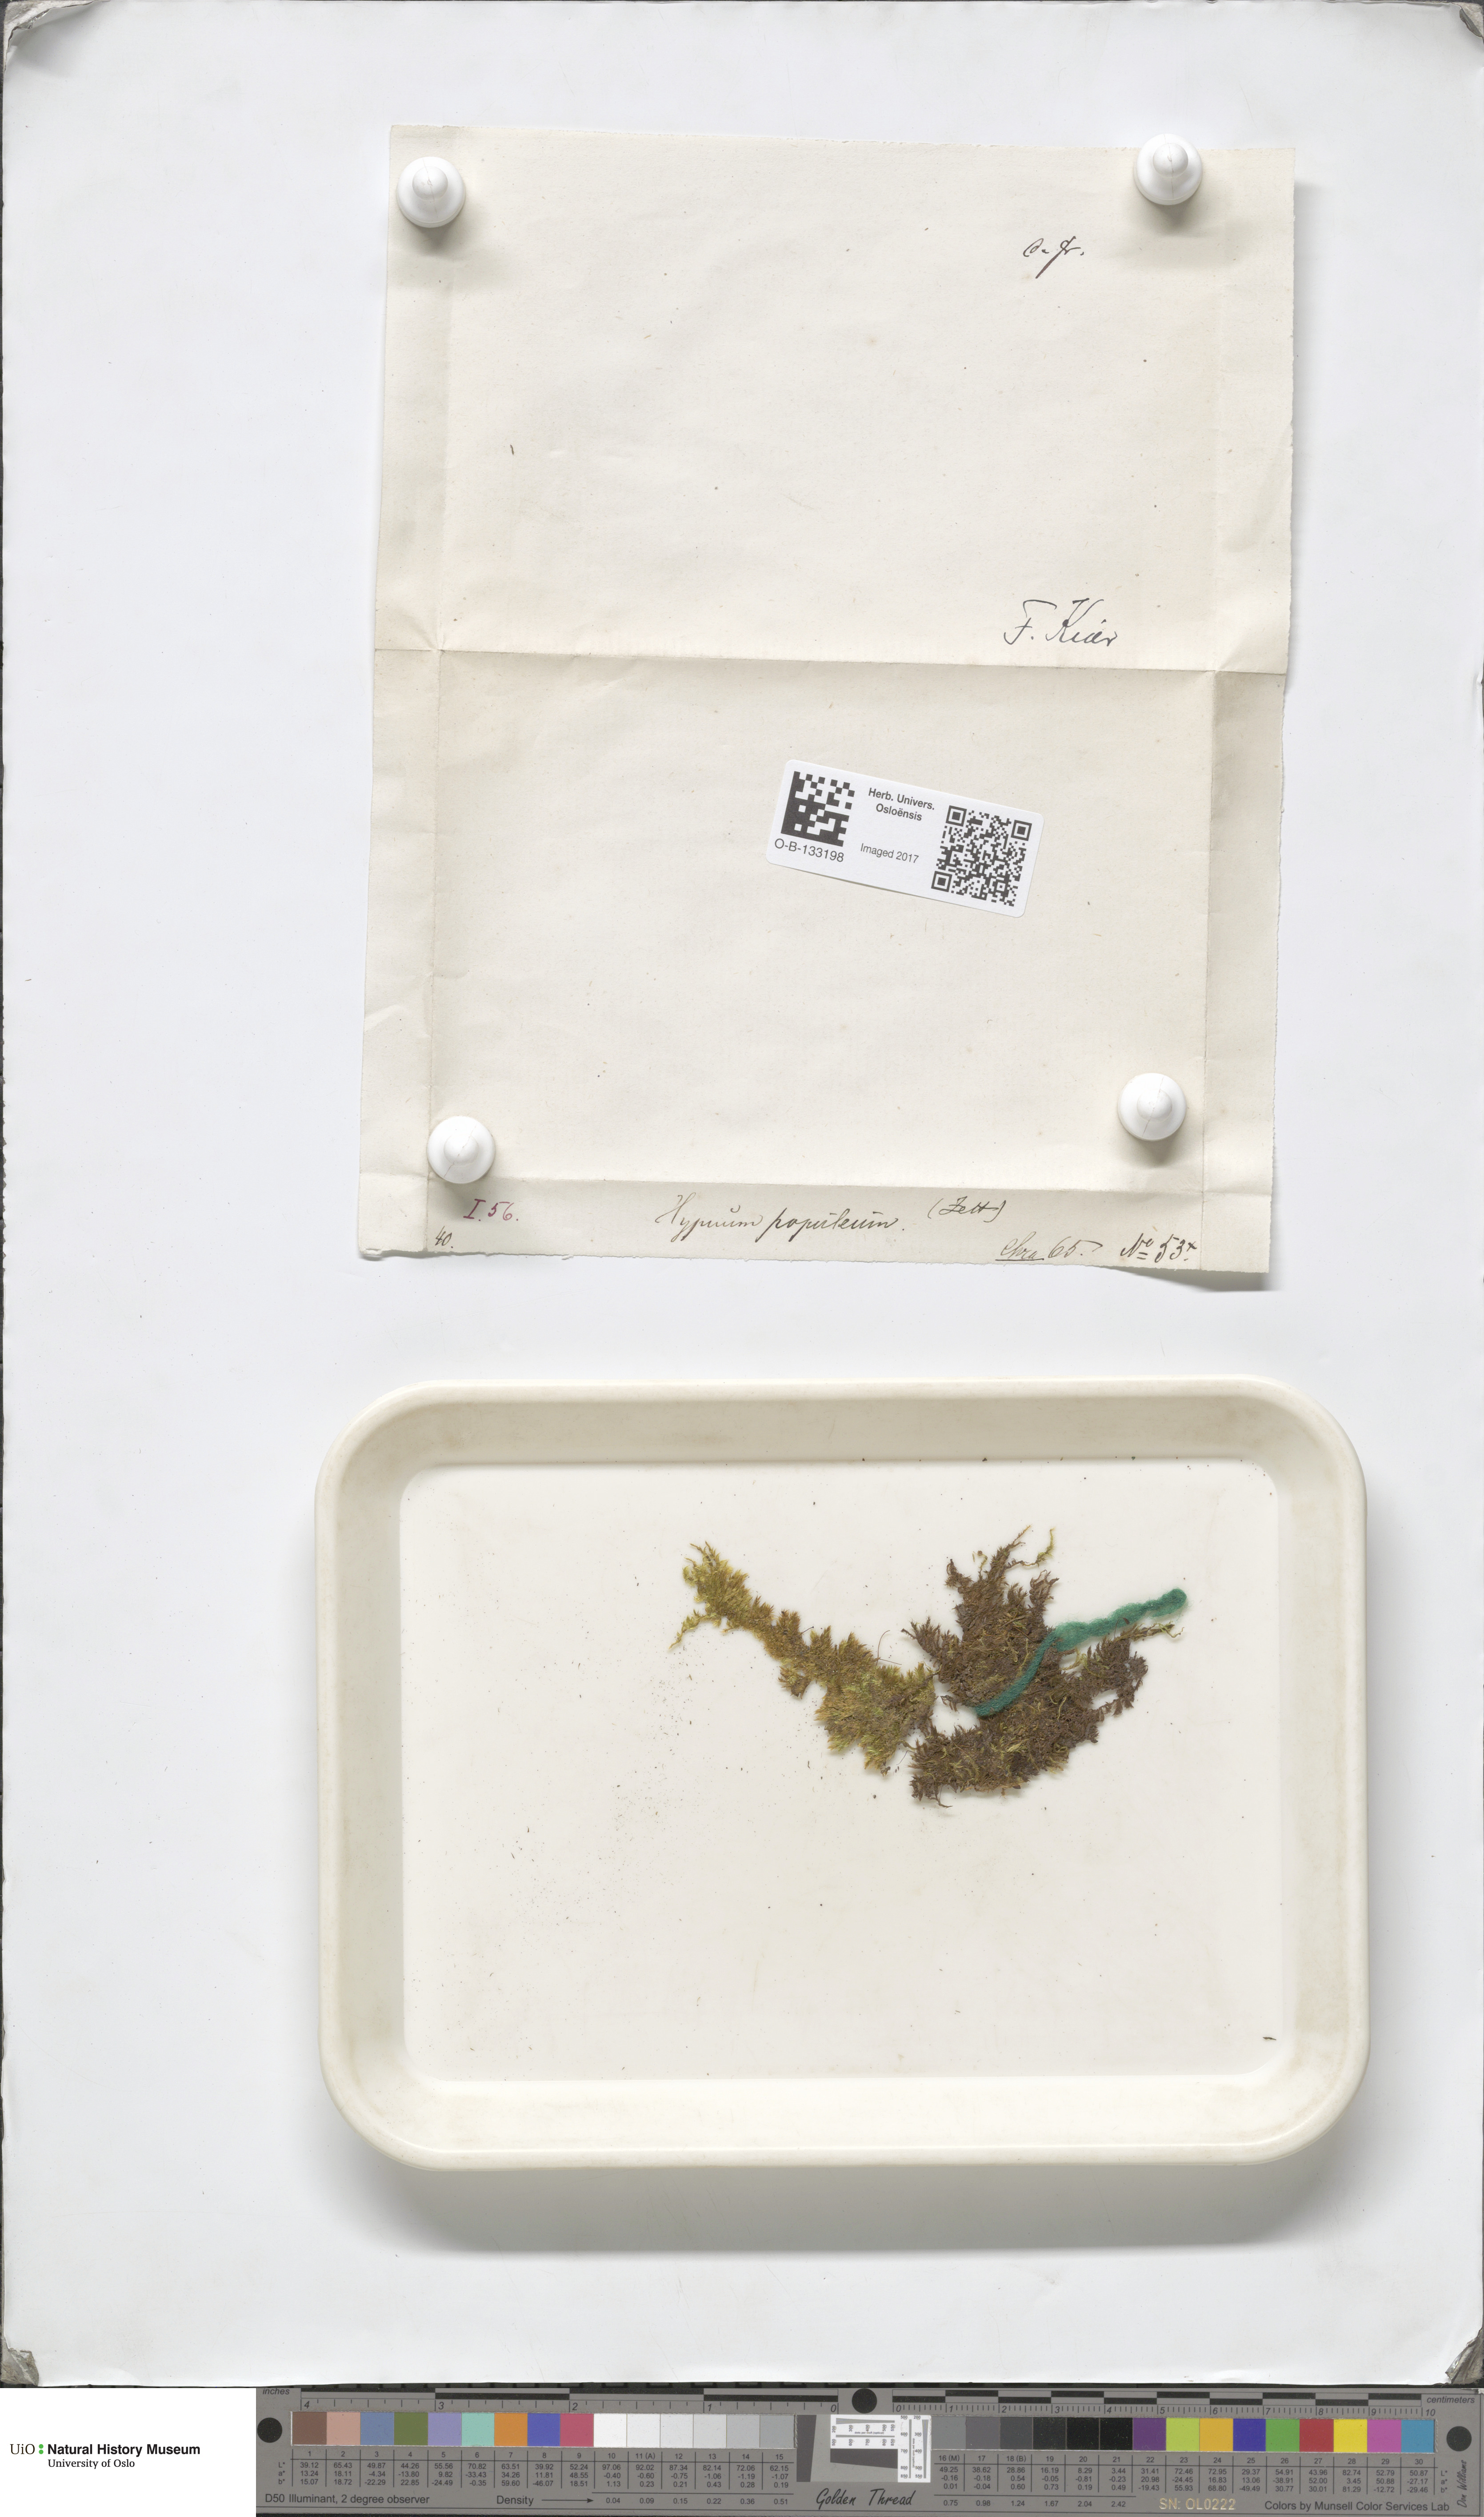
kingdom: Plantae
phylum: Bryophyta
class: Bryopsida
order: Hypnales
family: Brachytheciaceae
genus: Sciuro-hypnum
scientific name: Sciuro-hypnum populeum
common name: Matted feather-moss
